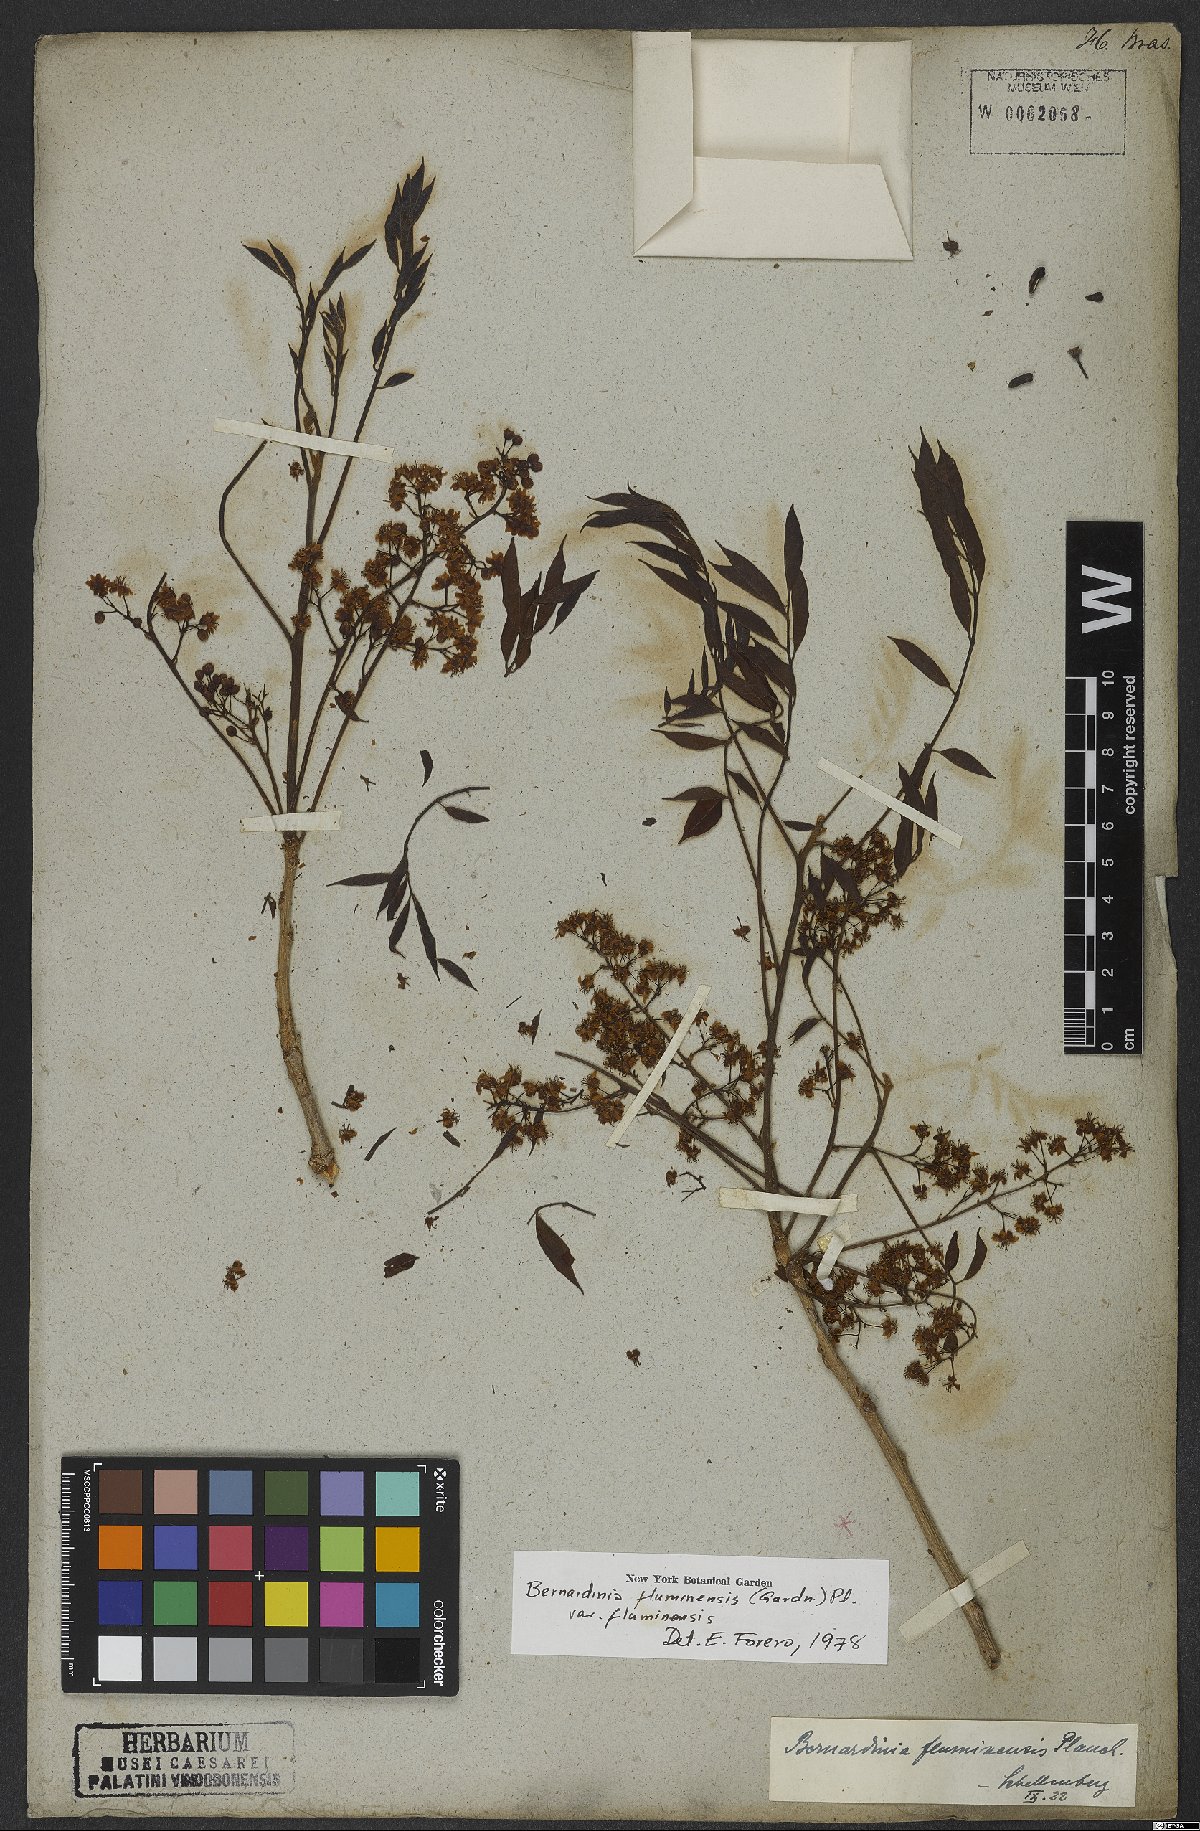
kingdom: Plantae
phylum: Tracheophyta
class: Magnoliopsida
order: Oxalidales
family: Connaraceae
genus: Rourea
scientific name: Rourea fluminensis
